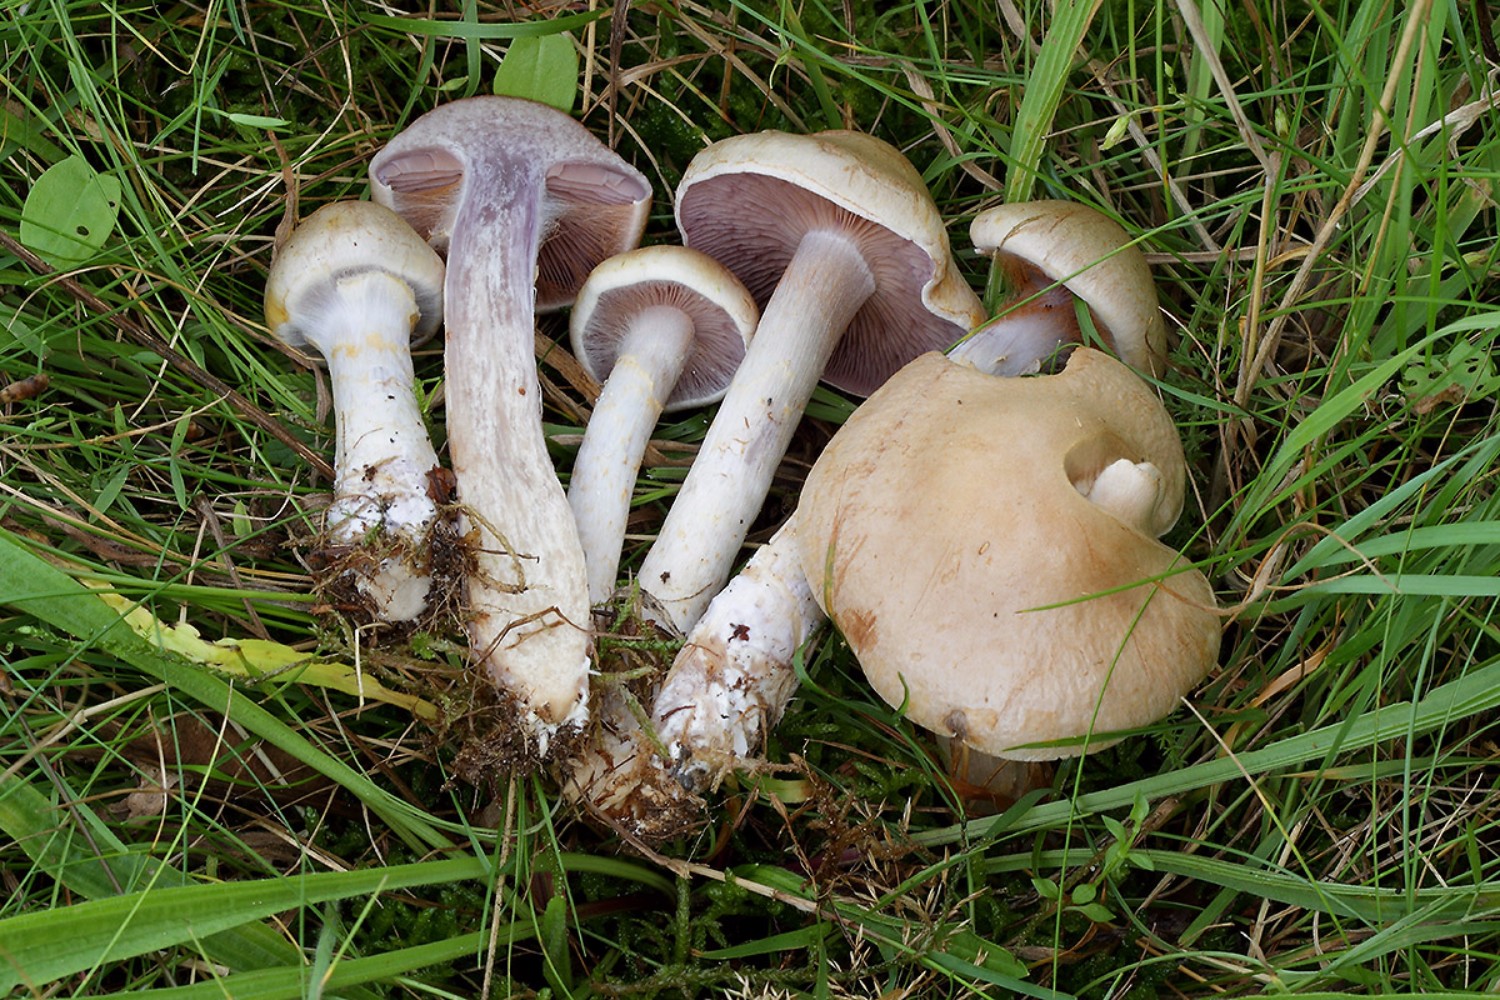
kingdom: Fungi
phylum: Basidiomycota
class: Agaricomycetes
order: Agaricales
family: Cortinariaceae
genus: Cortinarius
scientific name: Cortinarius
